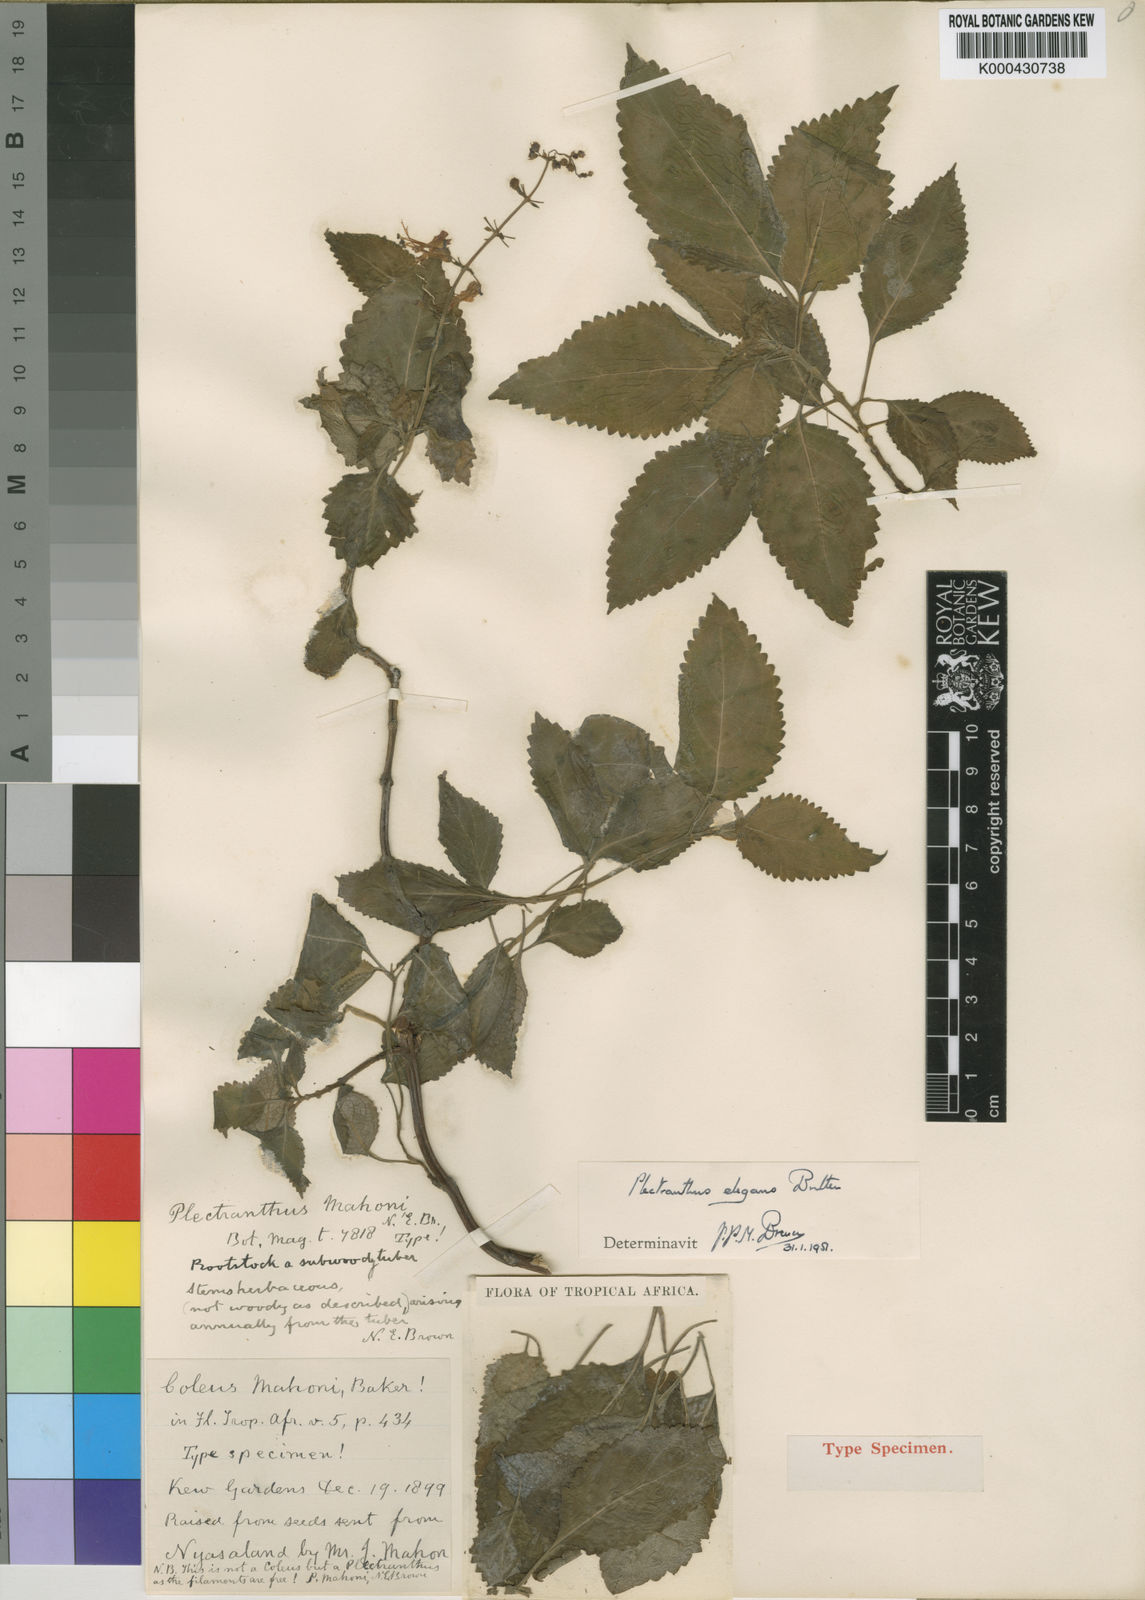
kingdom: Plantae
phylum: Tracheophyta
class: Magnoliopsida
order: Lamiales
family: Lamiaceae
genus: Plectranthus
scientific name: Plectranthus elegans
